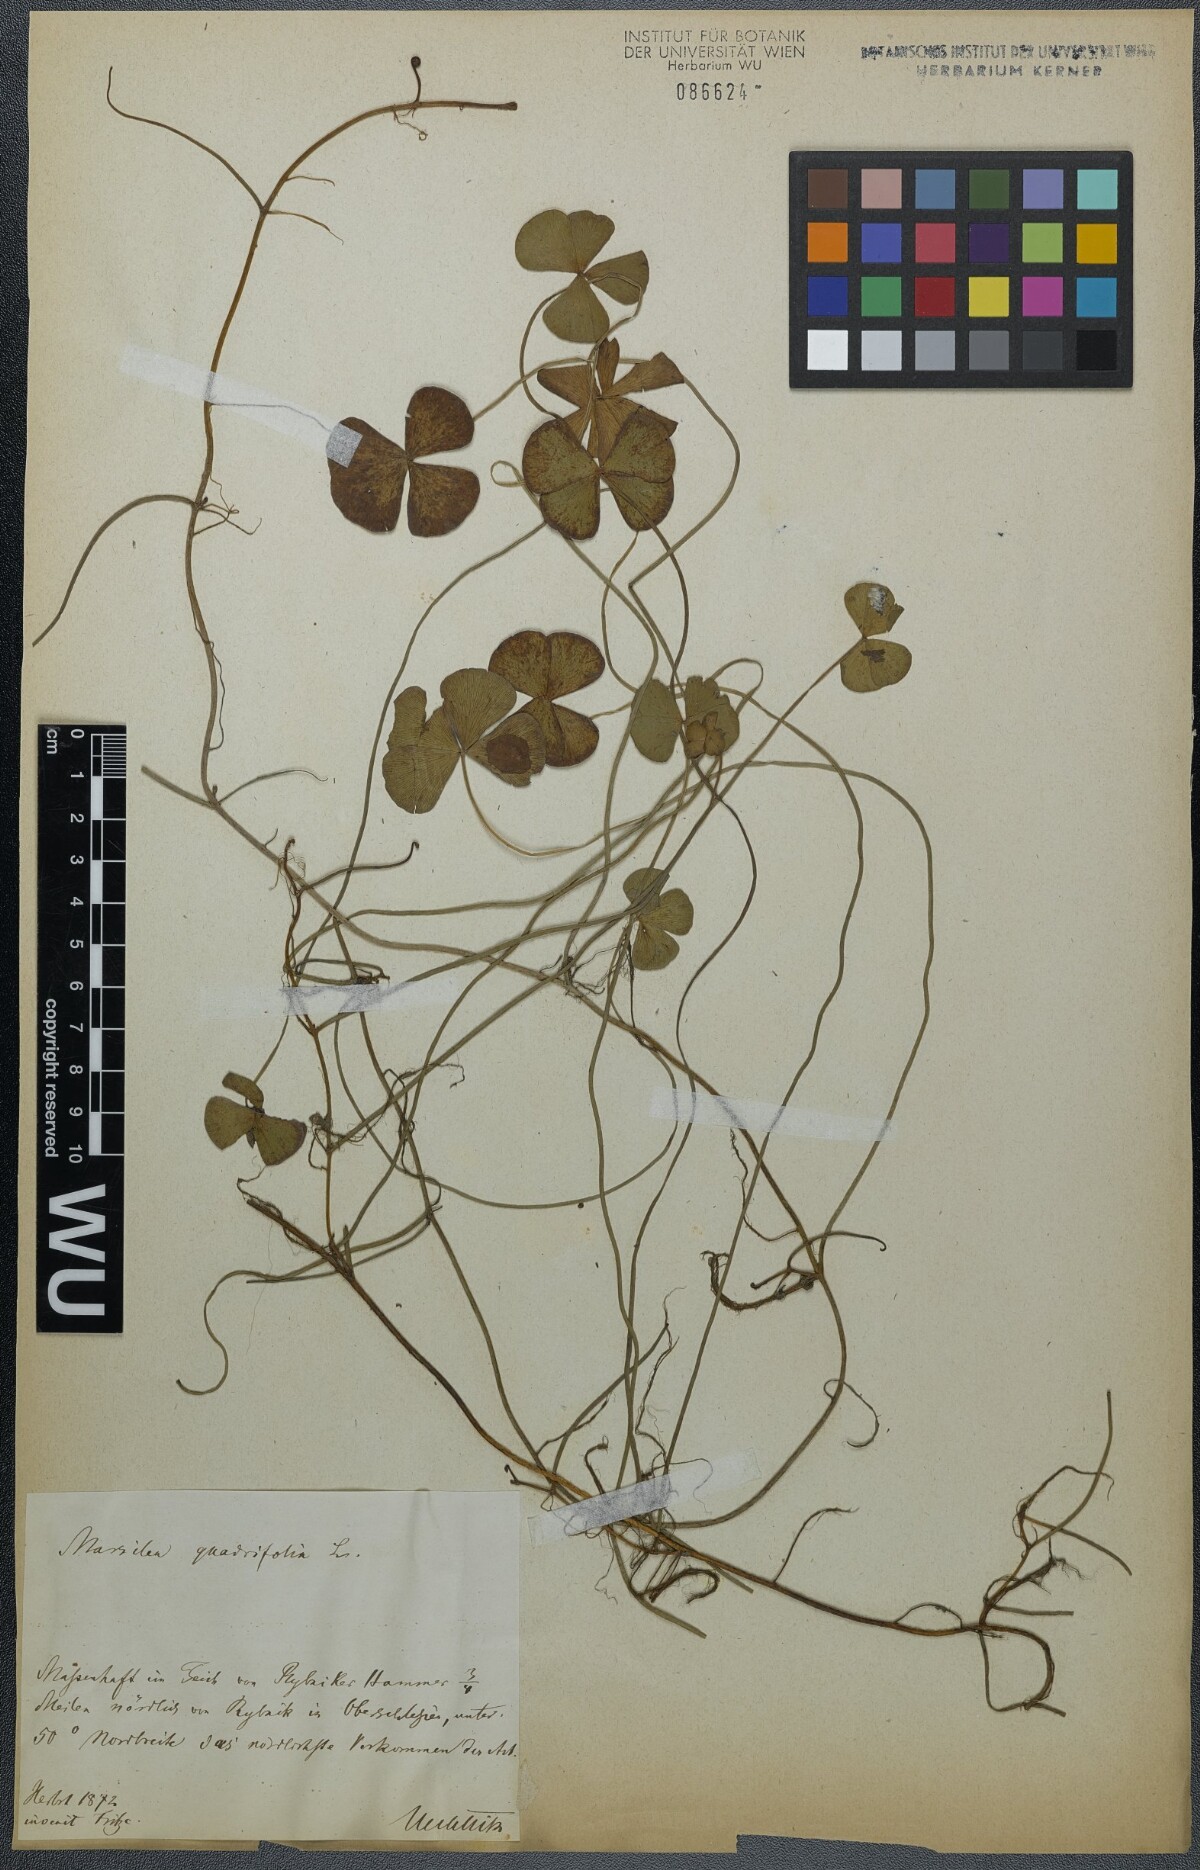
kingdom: Plantae
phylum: Tracheophyta
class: Polypodiopsida
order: Salviniales
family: Marsileaceae
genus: Marsilea
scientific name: Marsilea quadrifolia
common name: Water shamrock
